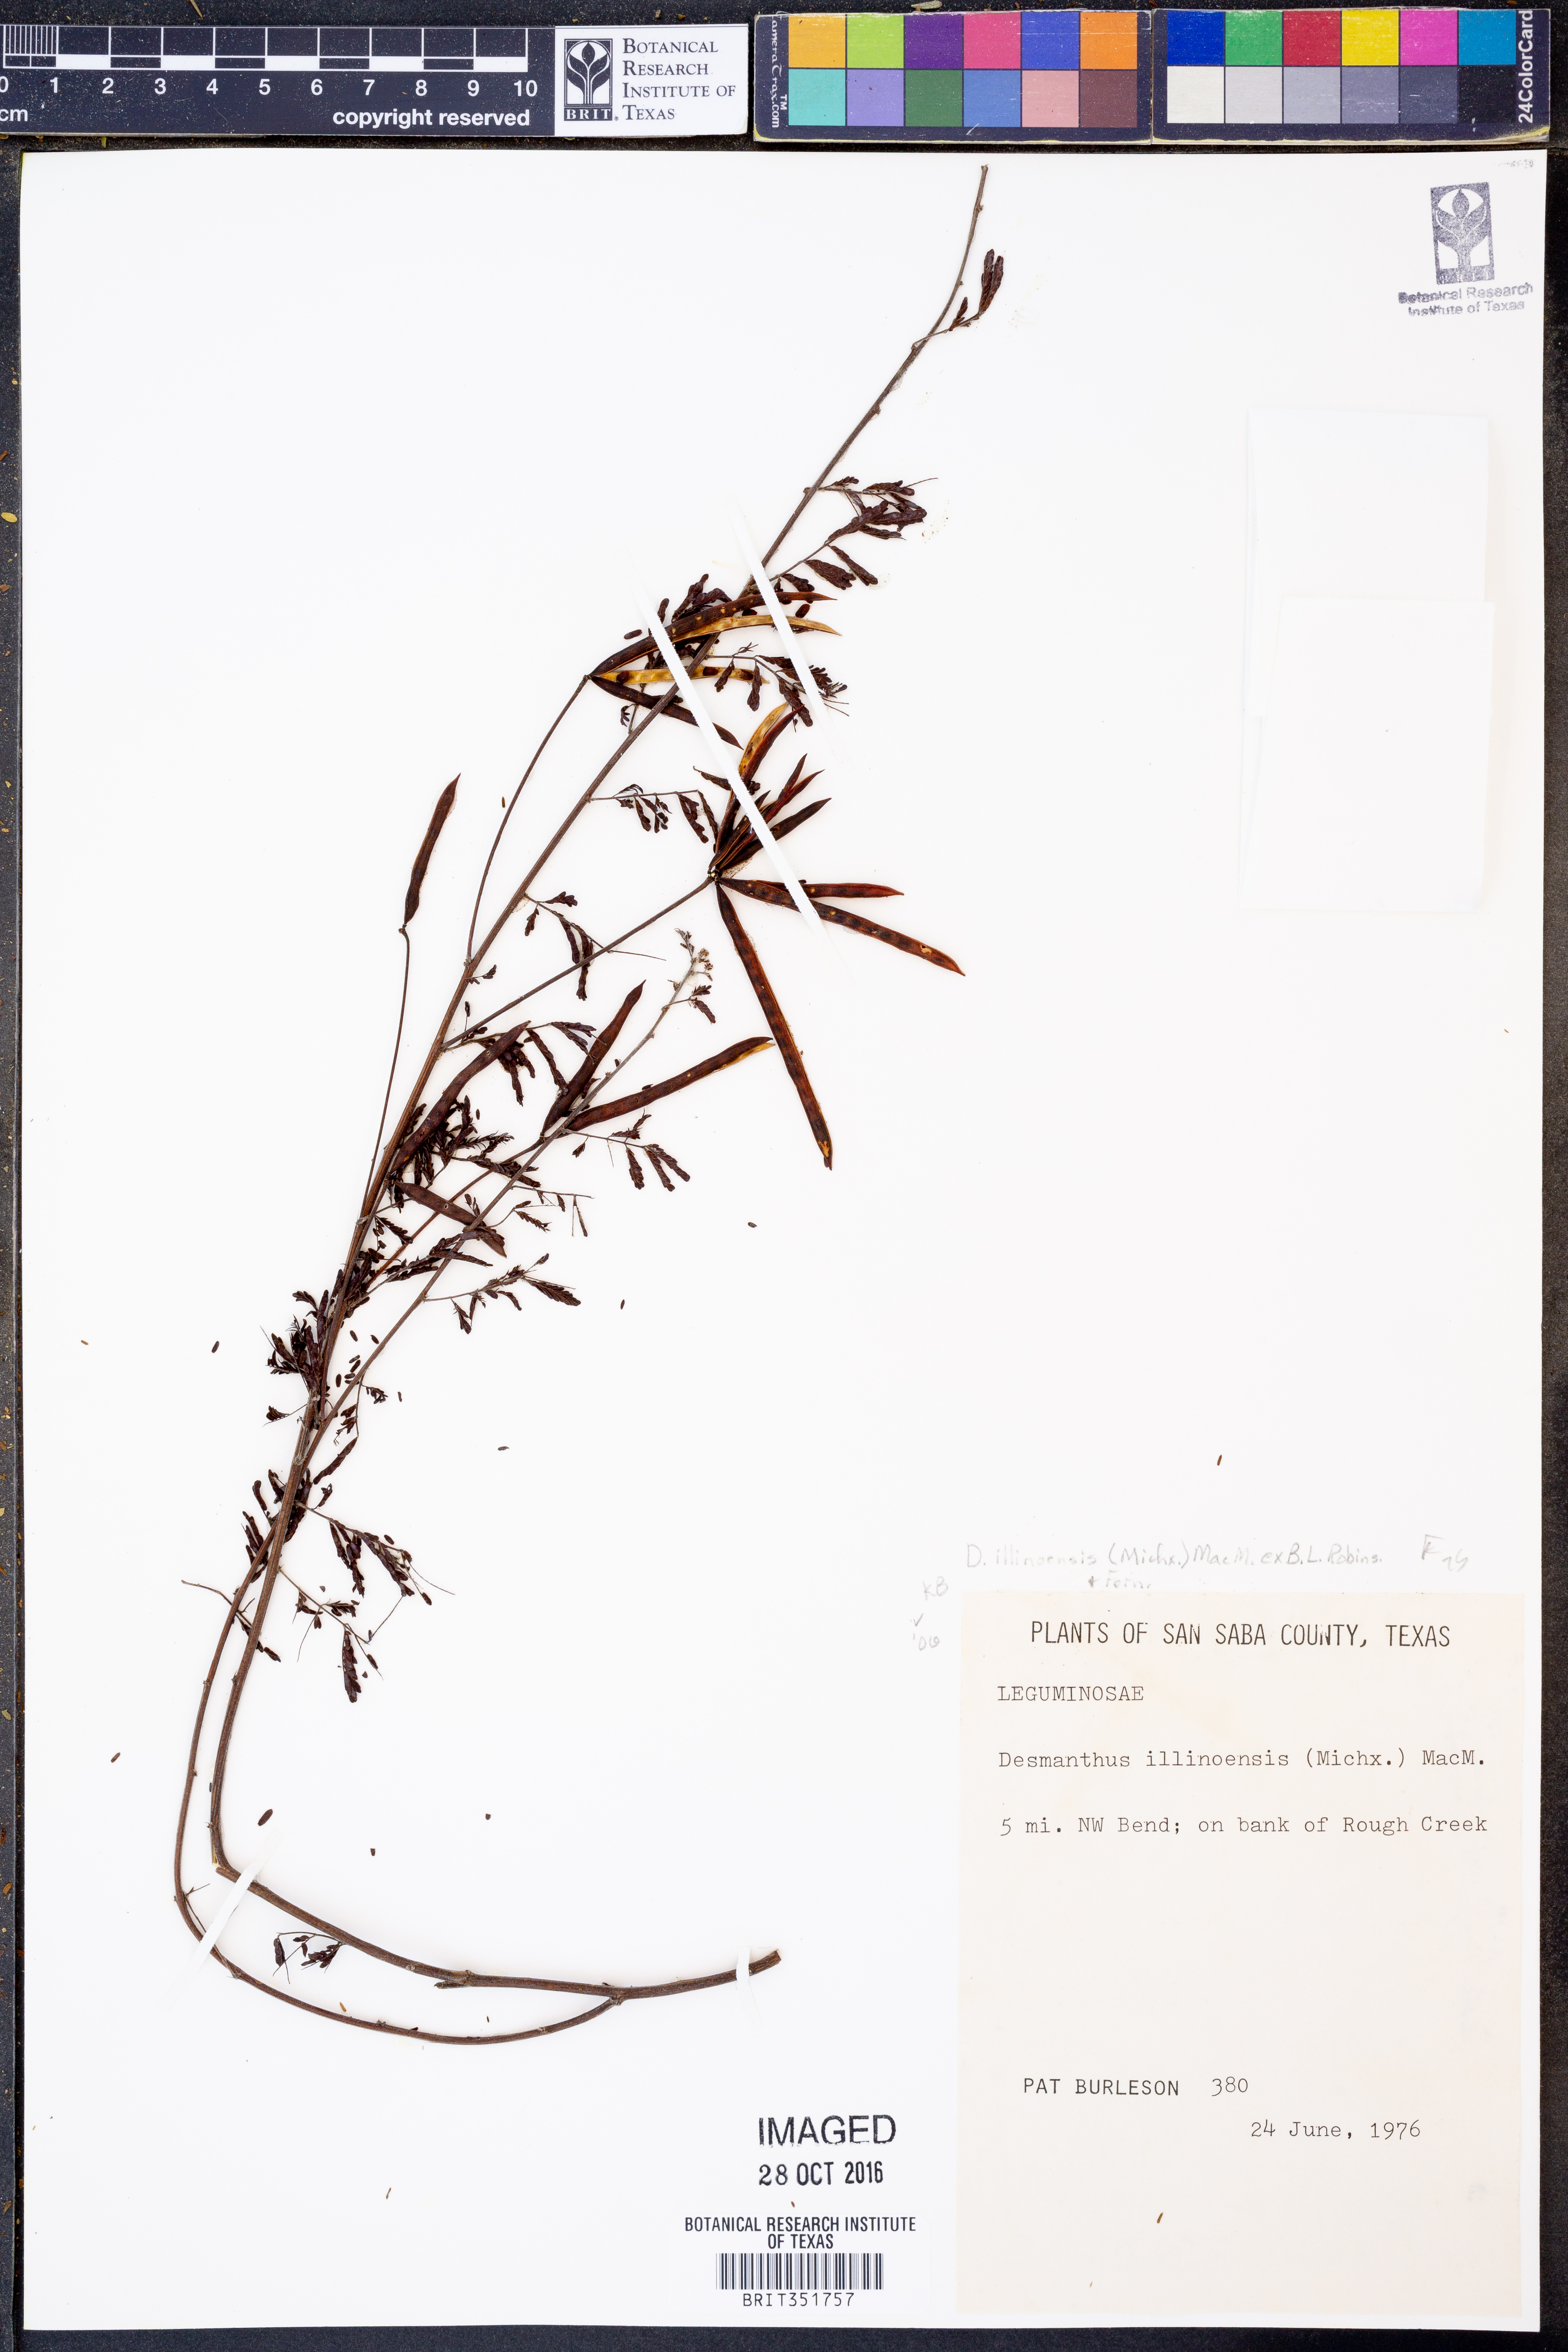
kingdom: Plantae
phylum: Tracheophyta
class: Magnoliopsida
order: Fabales
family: Fabaceae
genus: Desmanthus
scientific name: Desmanthus illinoensis
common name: Illinois bundle-flower
